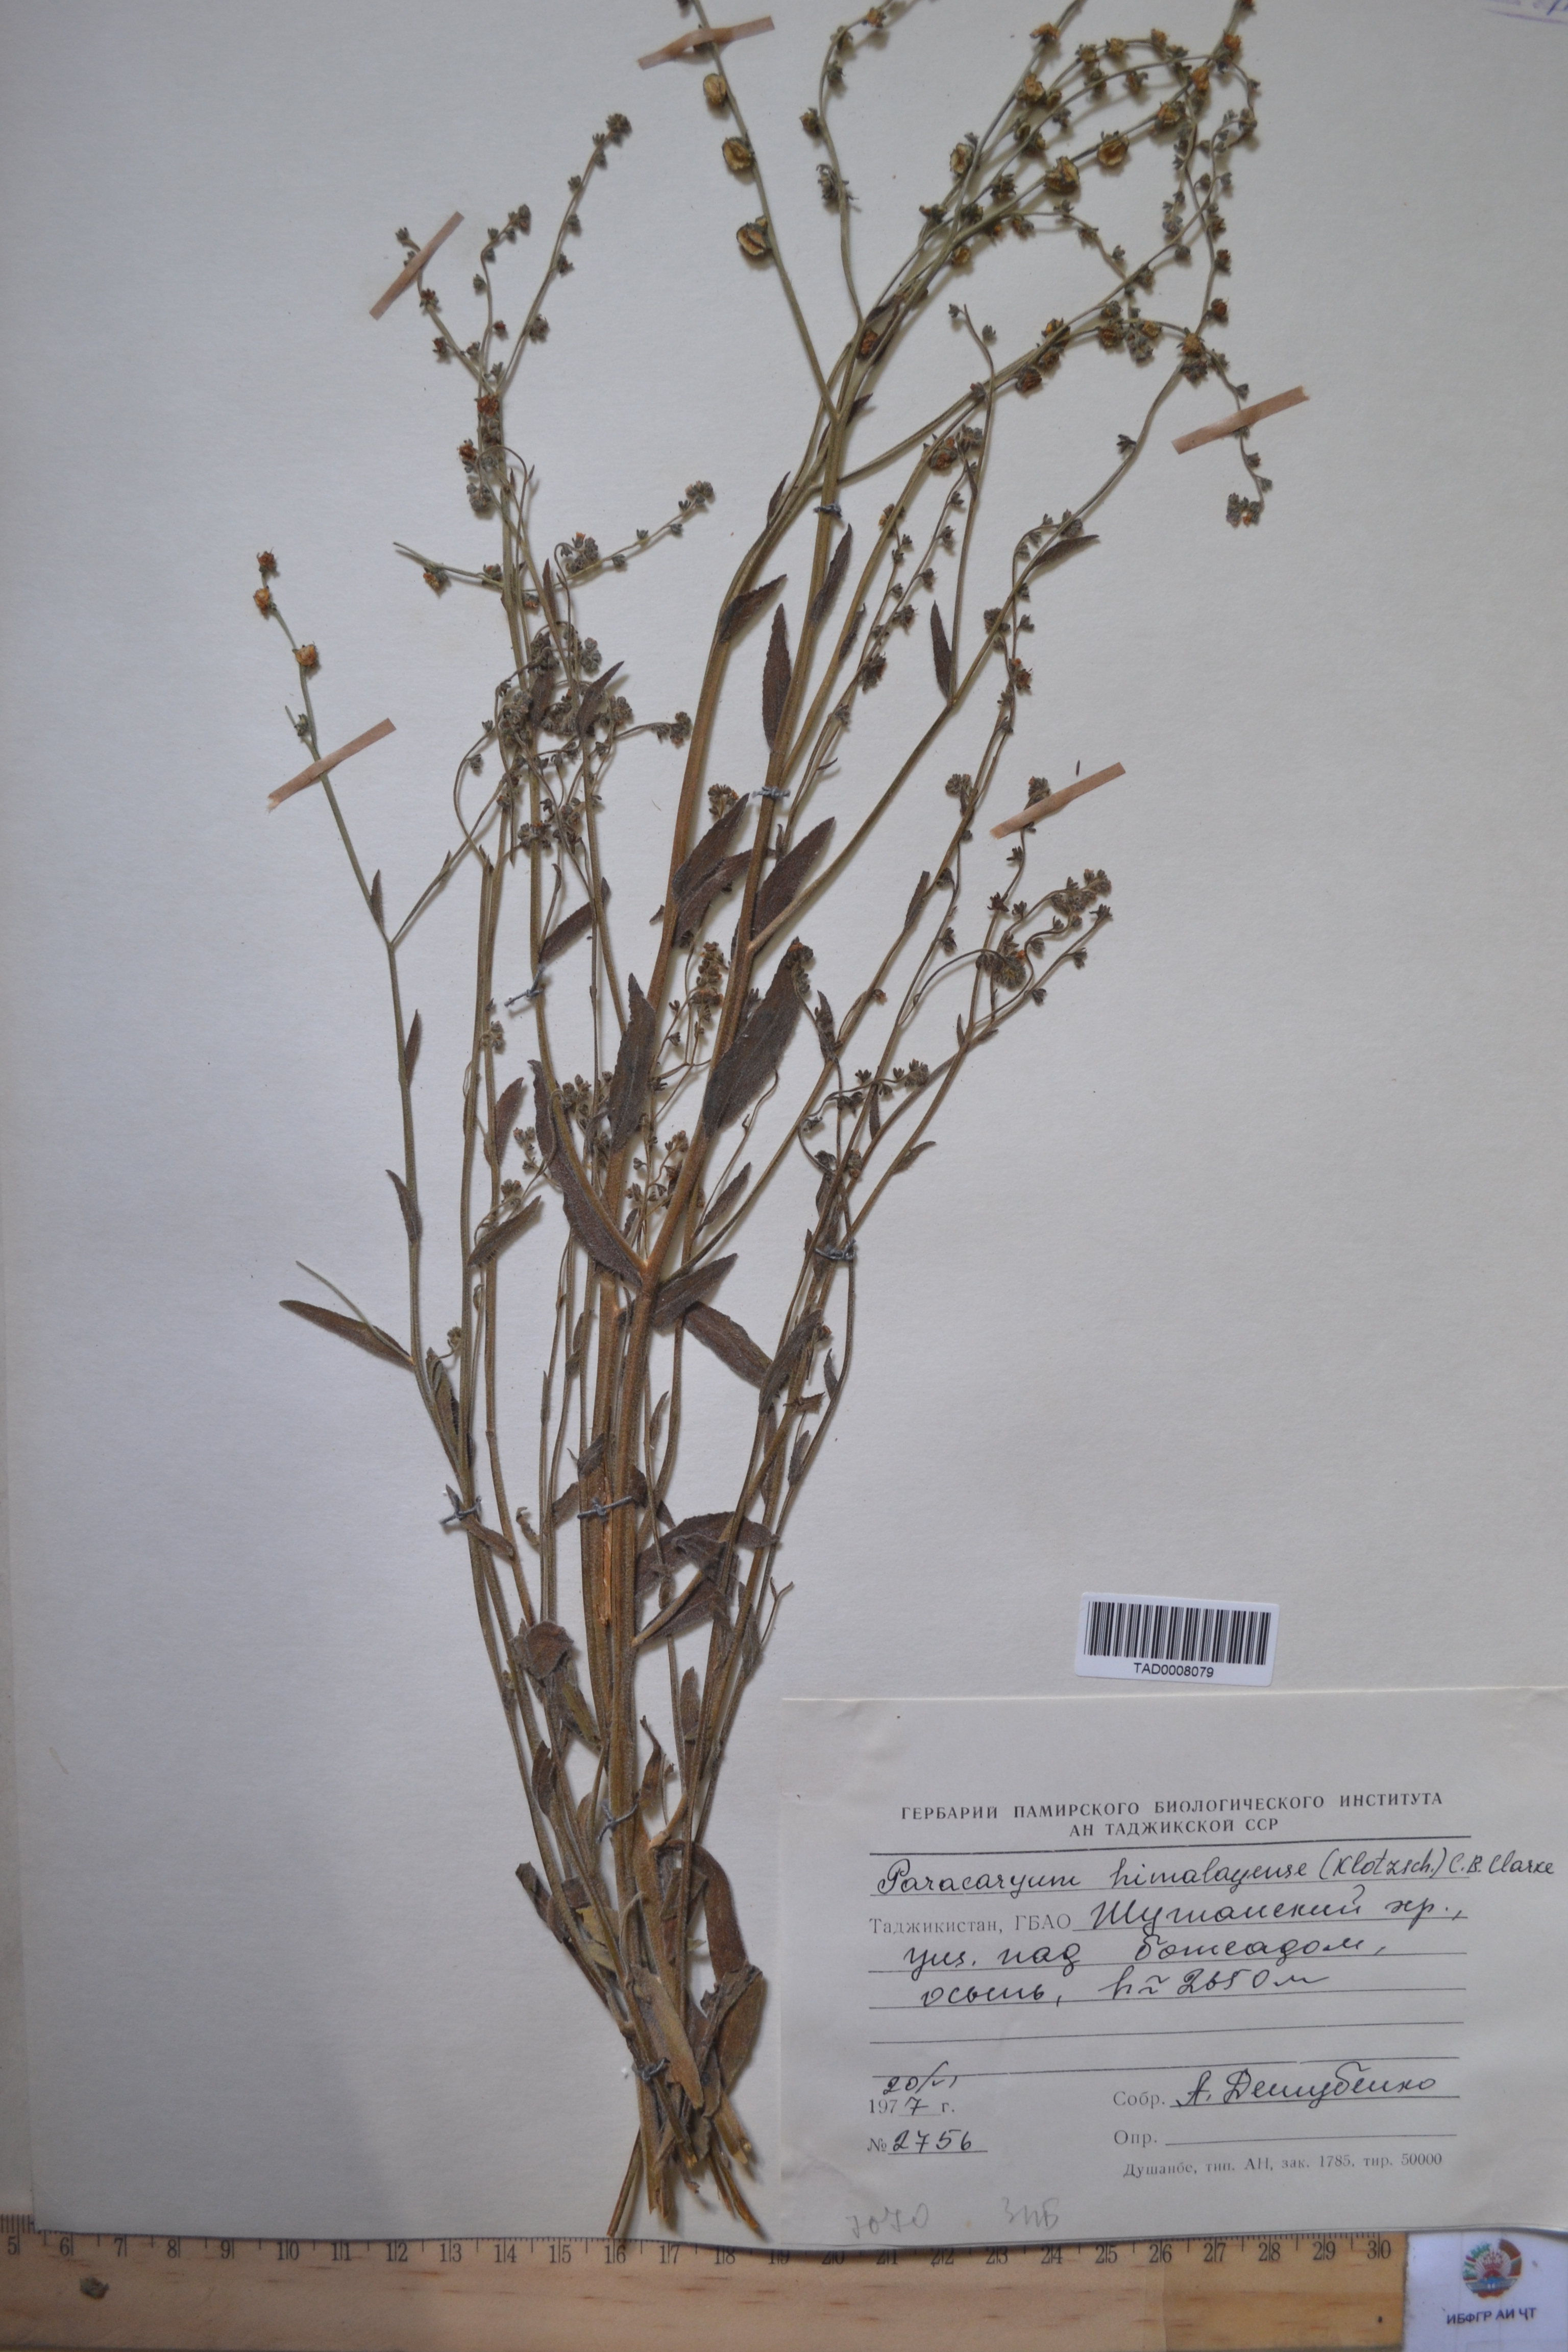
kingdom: Plantae
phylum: Tracheophyta
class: Magnoliopsida
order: Boraginales
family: Boraginaceae
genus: Paracaryum
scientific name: Paracaryum himalayense
